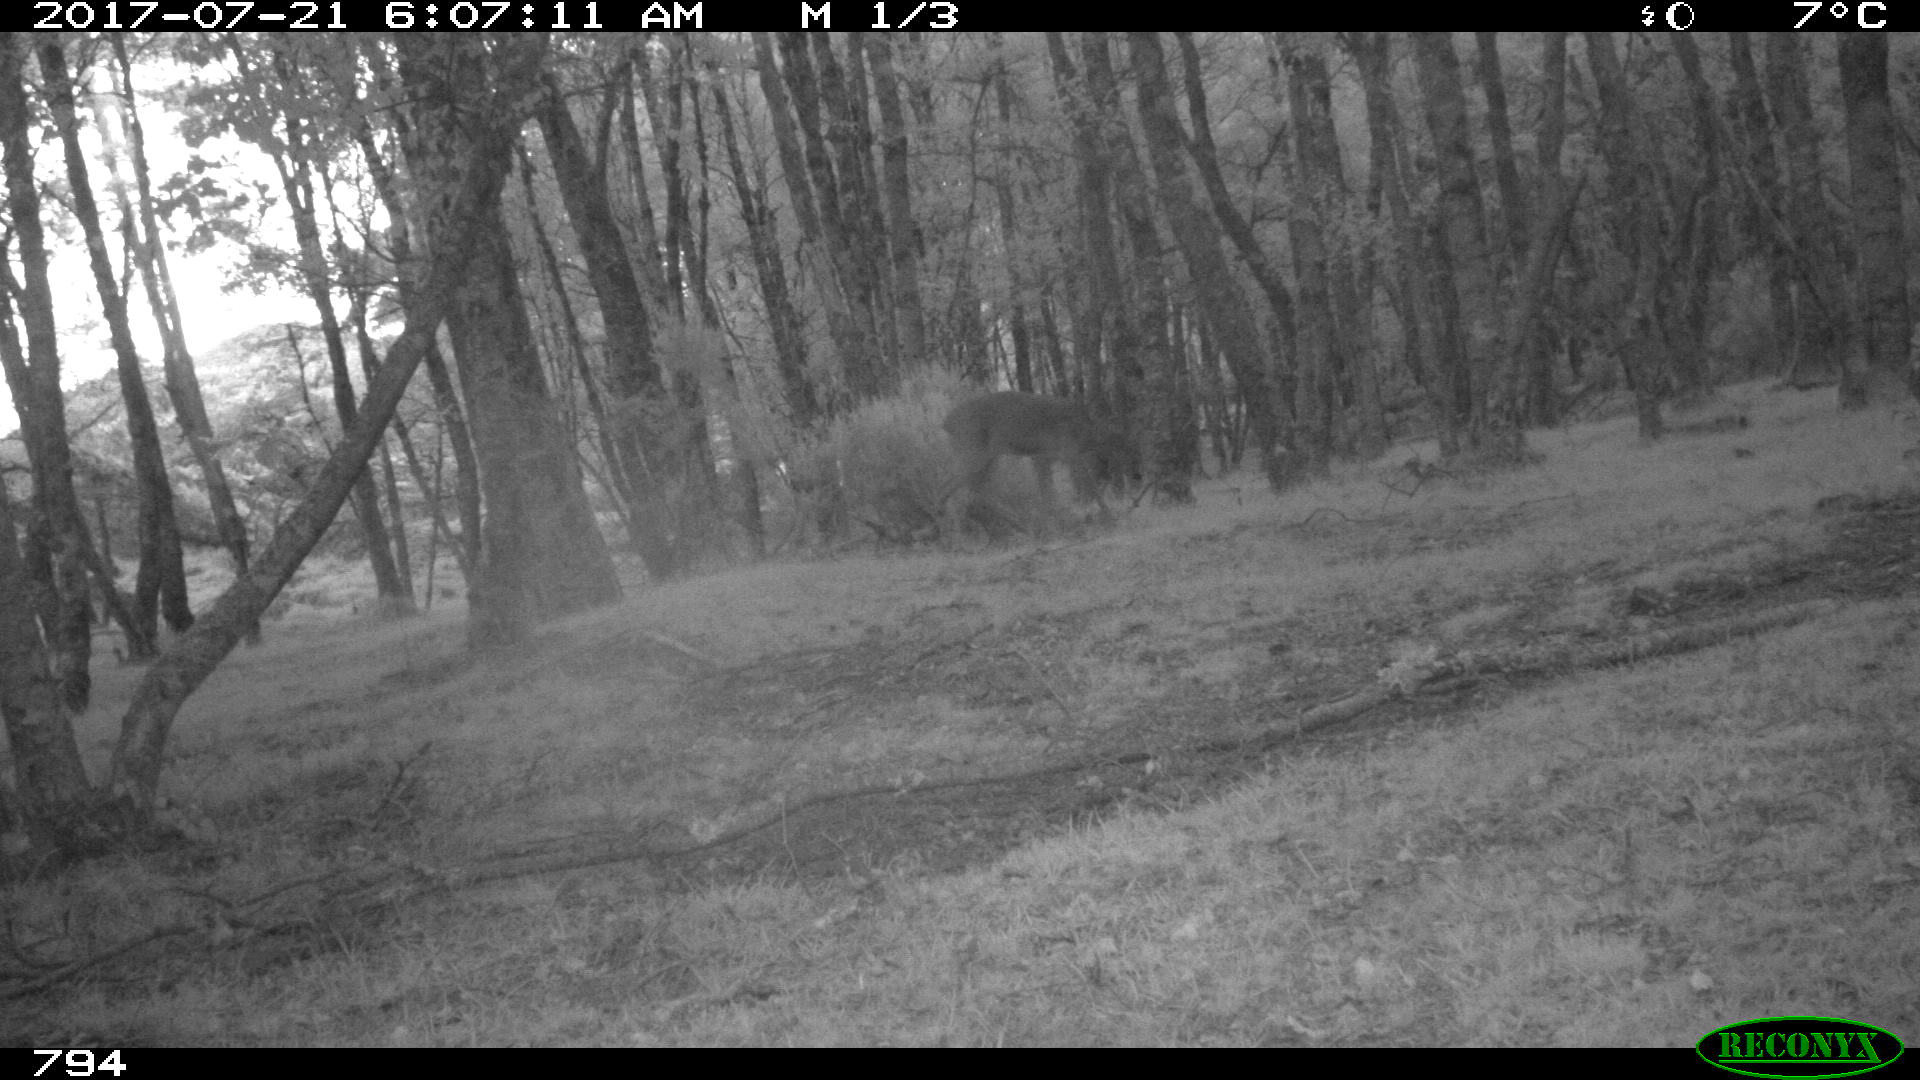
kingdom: Animalia
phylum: Chordata
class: Mammalia
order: Artiodactyla
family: Cervidae
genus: Capreolus
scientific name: Capreolus capreolus
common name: Western roe deer
